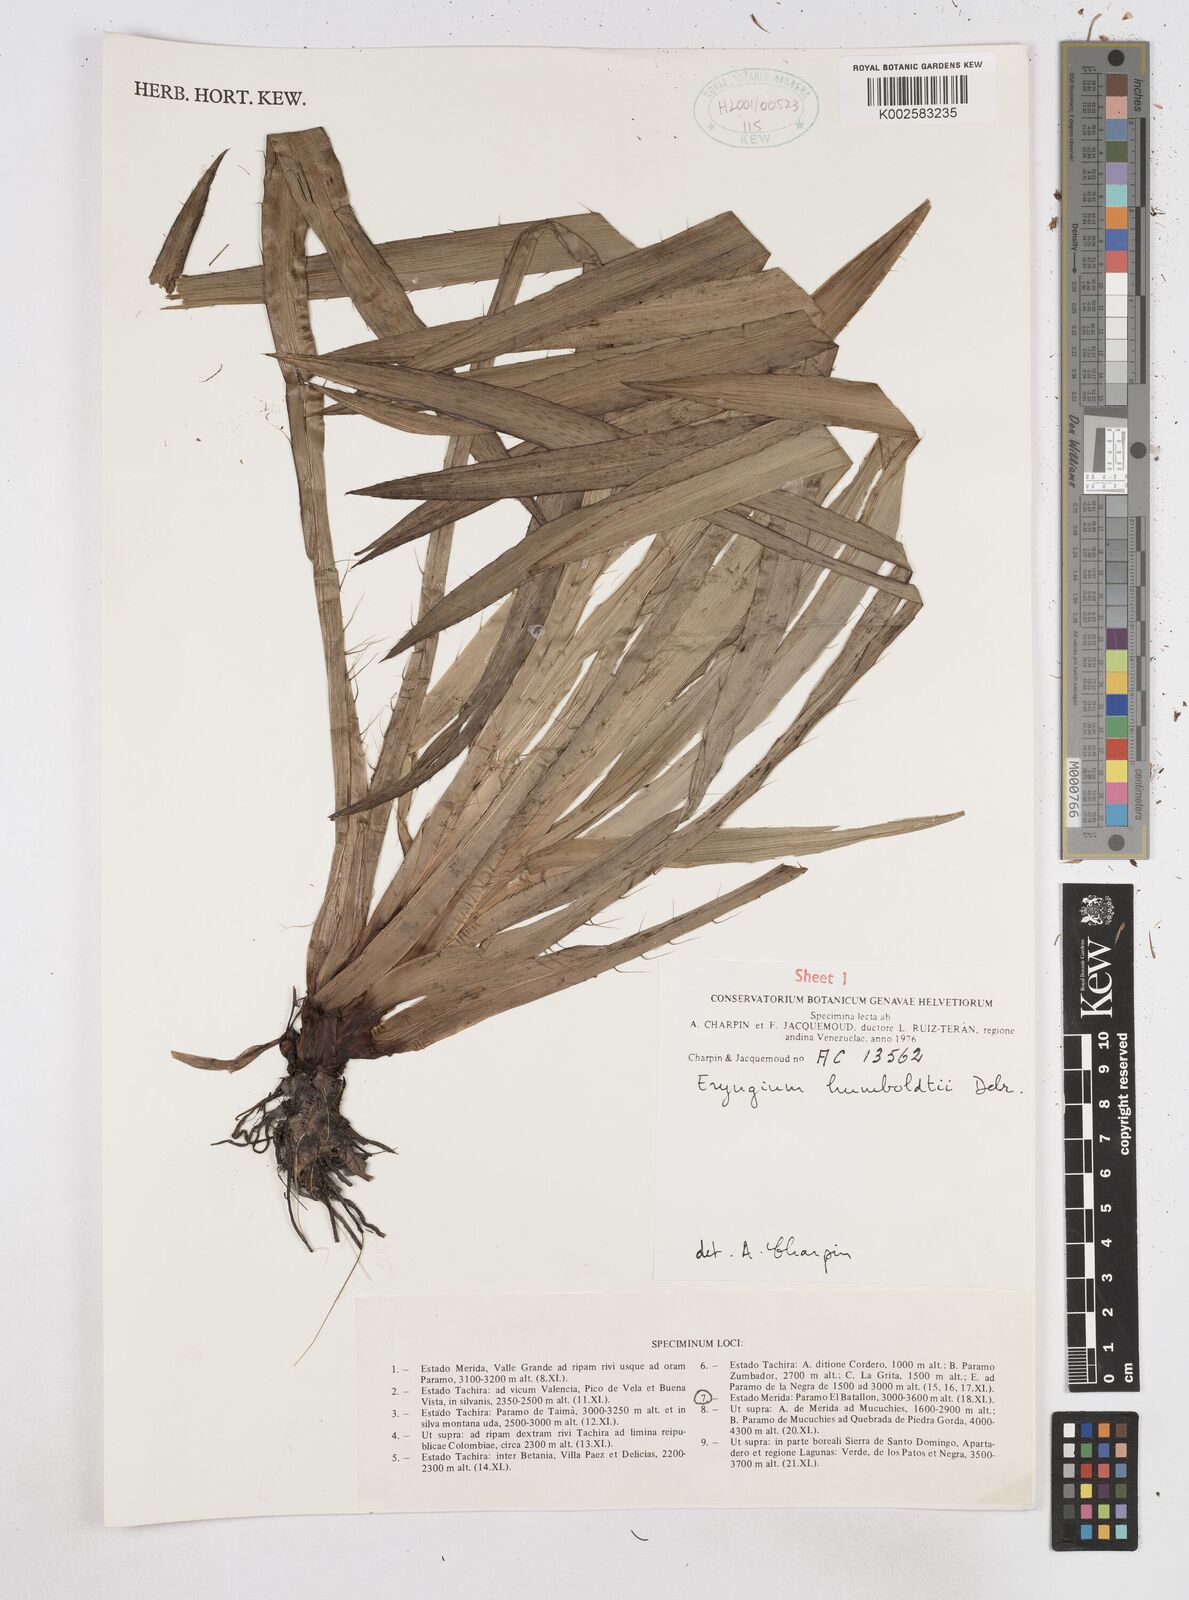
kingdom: Plantae
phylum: Tracheophyta
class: Magnoliopsida
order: Apiales
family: Apiaceae
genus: Eryngium
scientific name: Eryngium humboldtii
